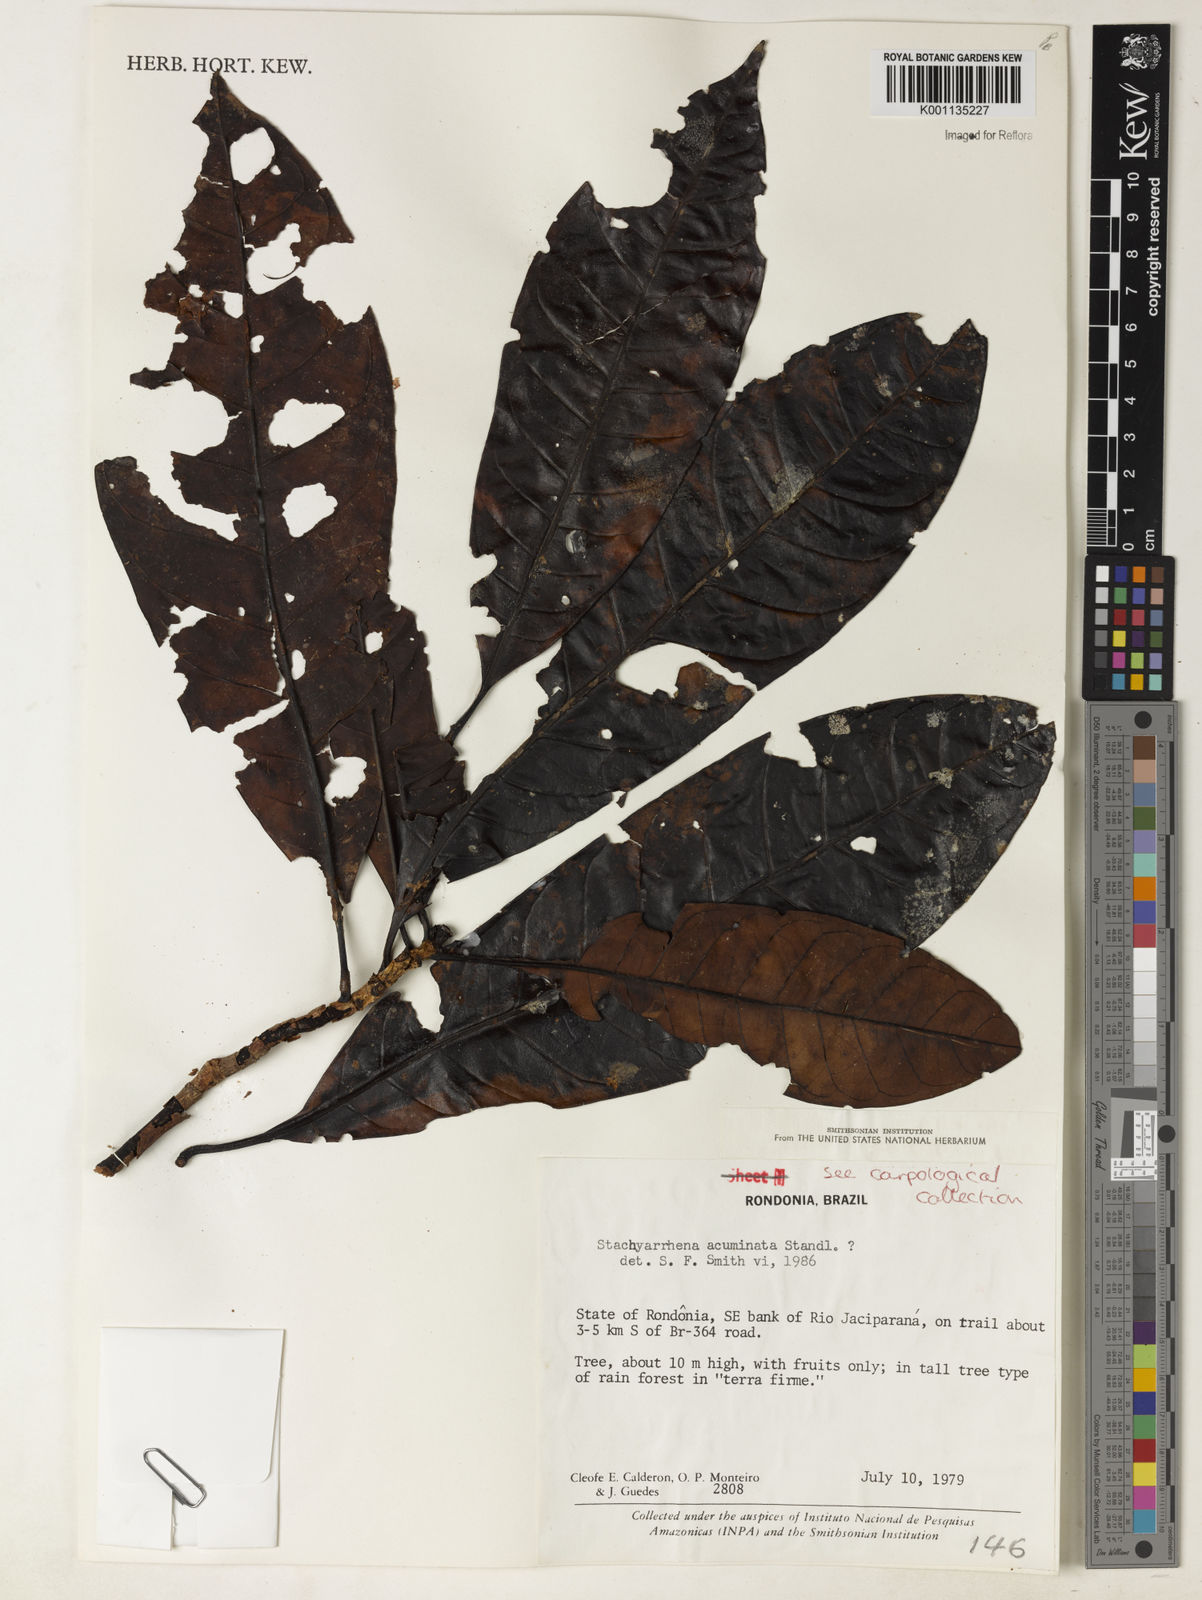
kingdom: Plantae
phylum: Tracheophyta
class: Magnoliopsida
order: Gentianales
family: Rubiaceae
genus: Stachyarrhena
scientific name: Stachyarrhena acuminata
